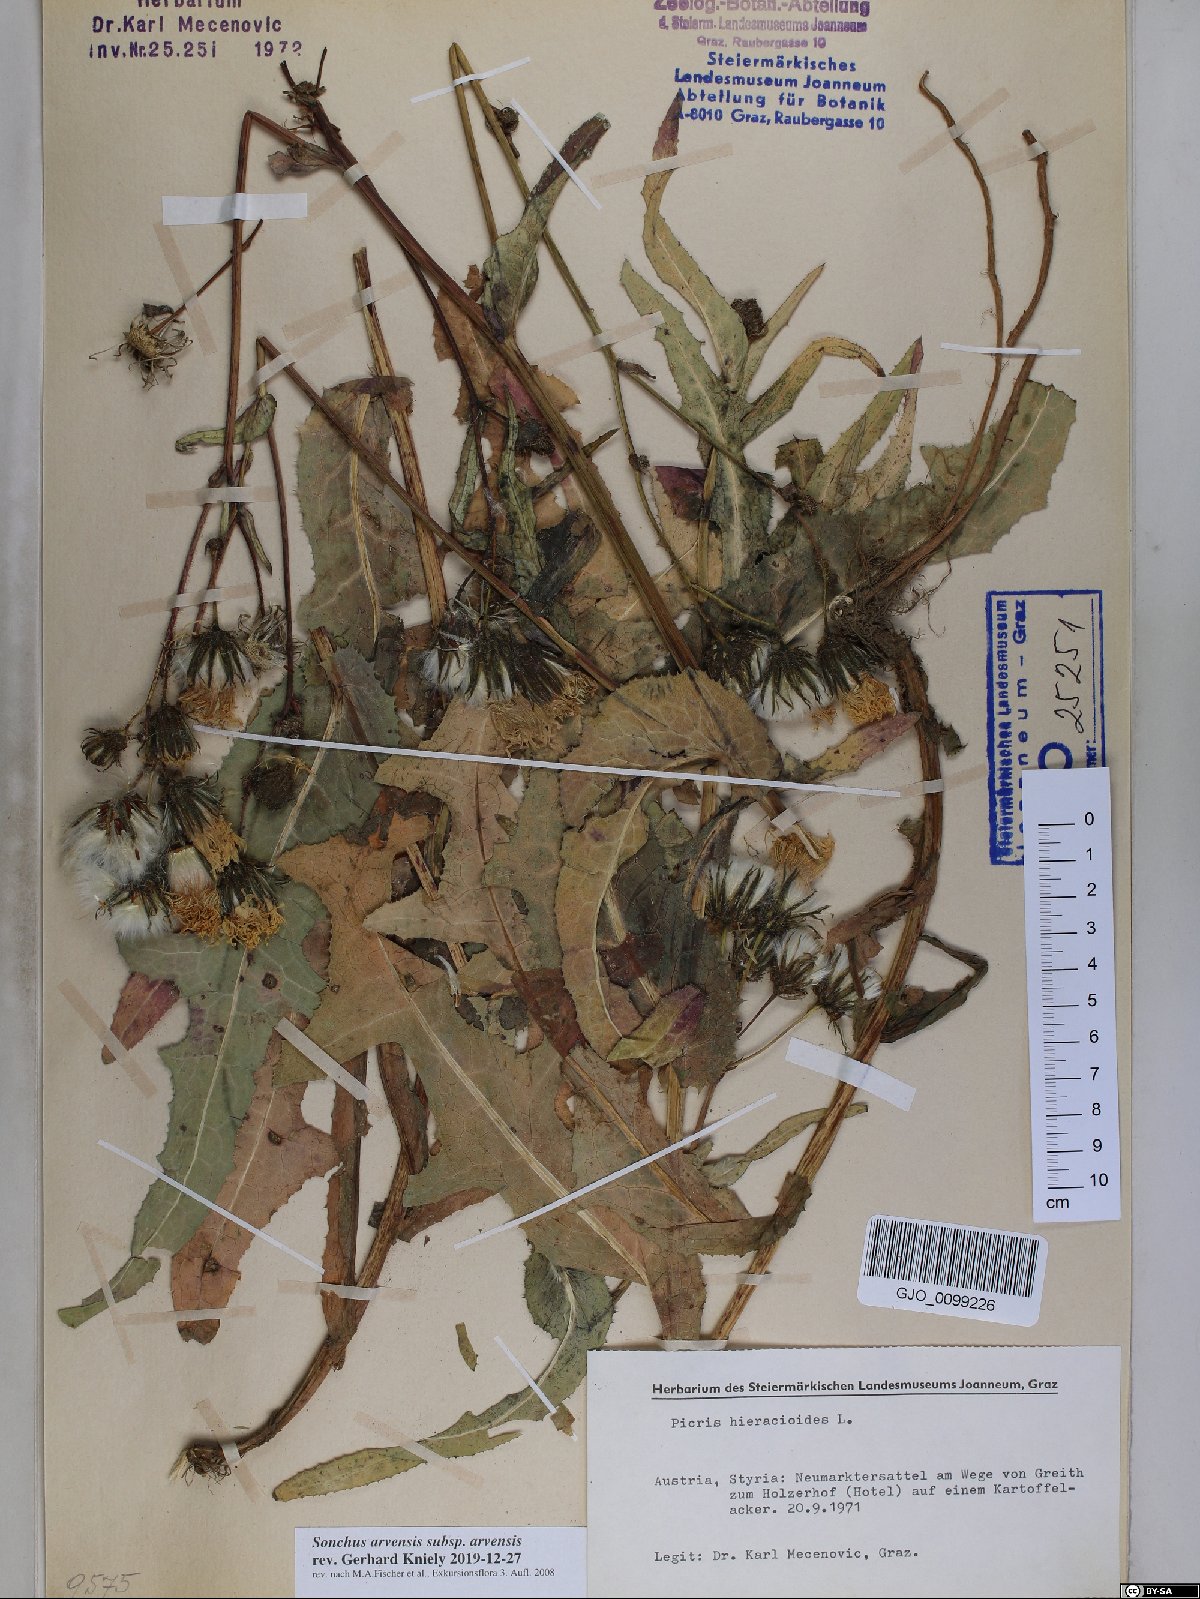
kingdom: Plantae
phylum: Tracheophyta
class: Magnoliopsida
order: Asterales
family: Asteraceae
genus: Sonchus
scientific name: Sonchus arvensis
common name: Perennial sow-thistle
